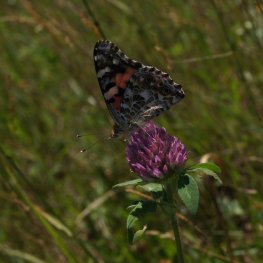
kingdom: Animalia
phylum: Arthropoda
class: Insecta
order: Lepidoptera
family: Nymphalidae
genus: Vanessa
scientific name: Vanessa cardui
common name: Painted Lady
